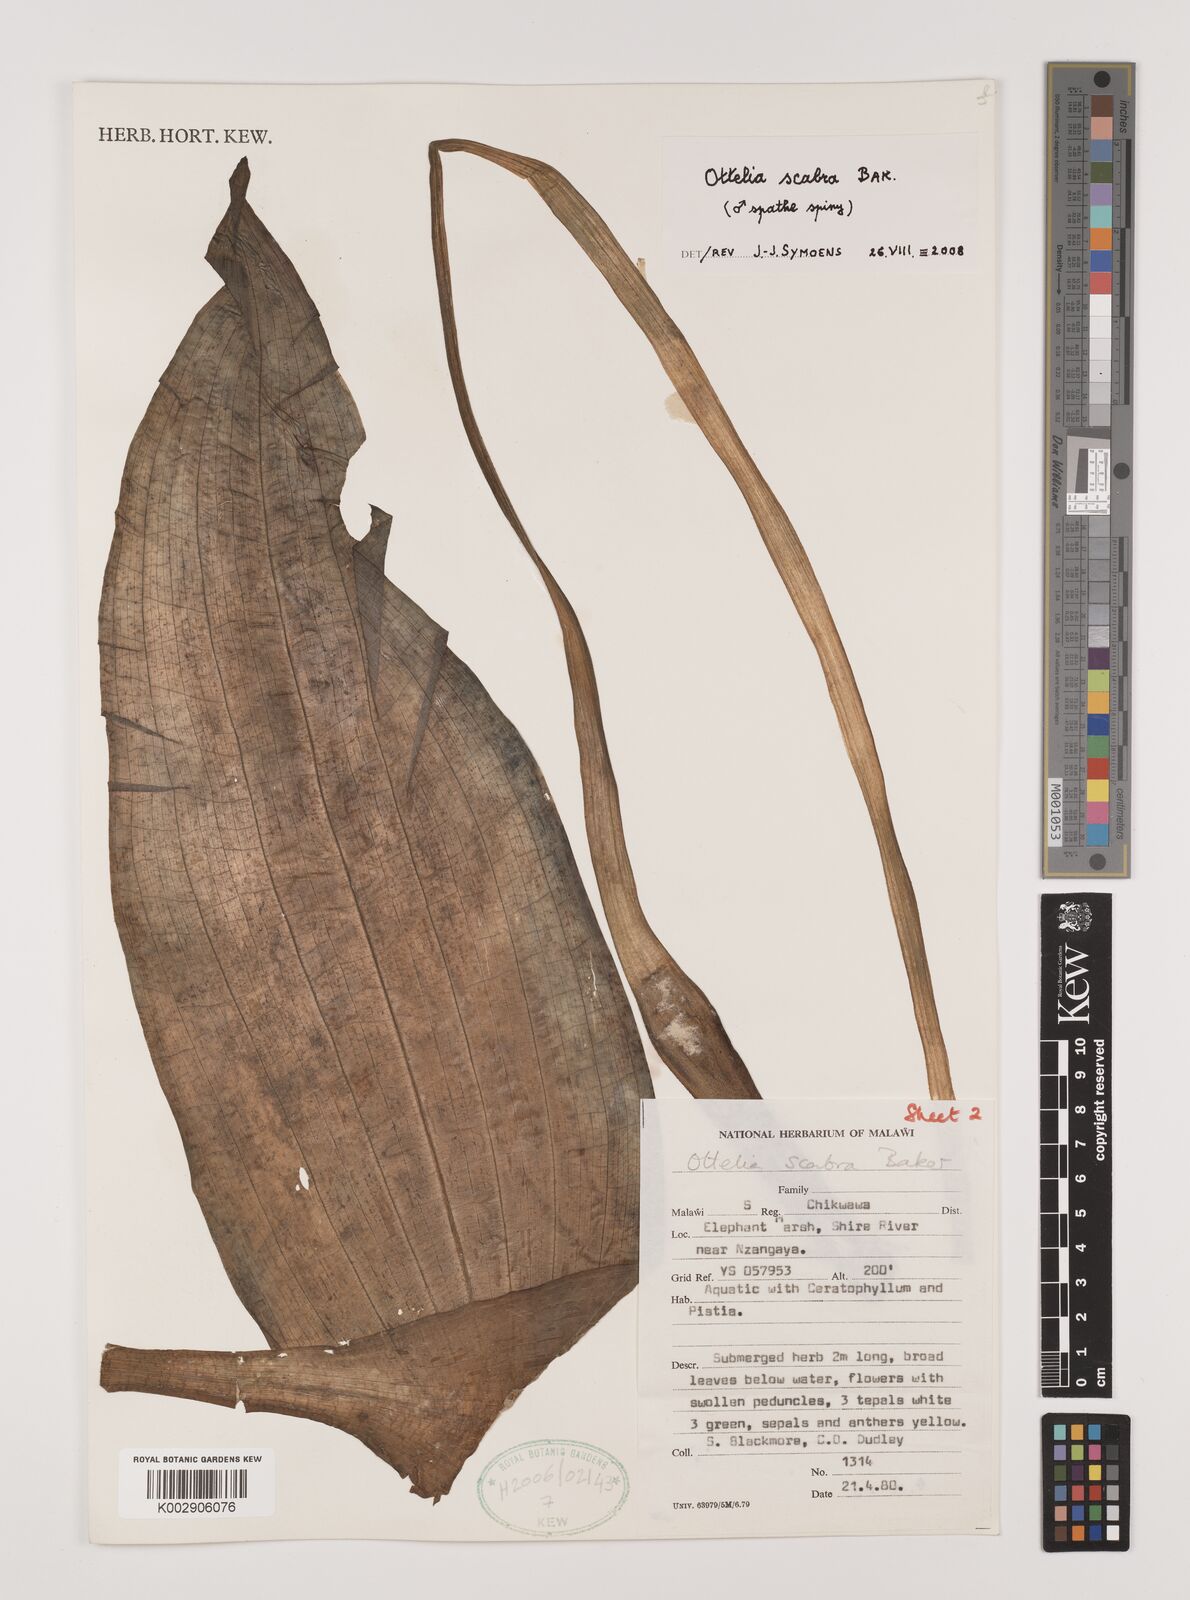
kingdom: Plantae
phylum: Tracheophyta
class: Liliopsida
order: Alismatales
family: Hydrocharitaceae
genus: Ottelia
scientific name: Ottelia scabra
